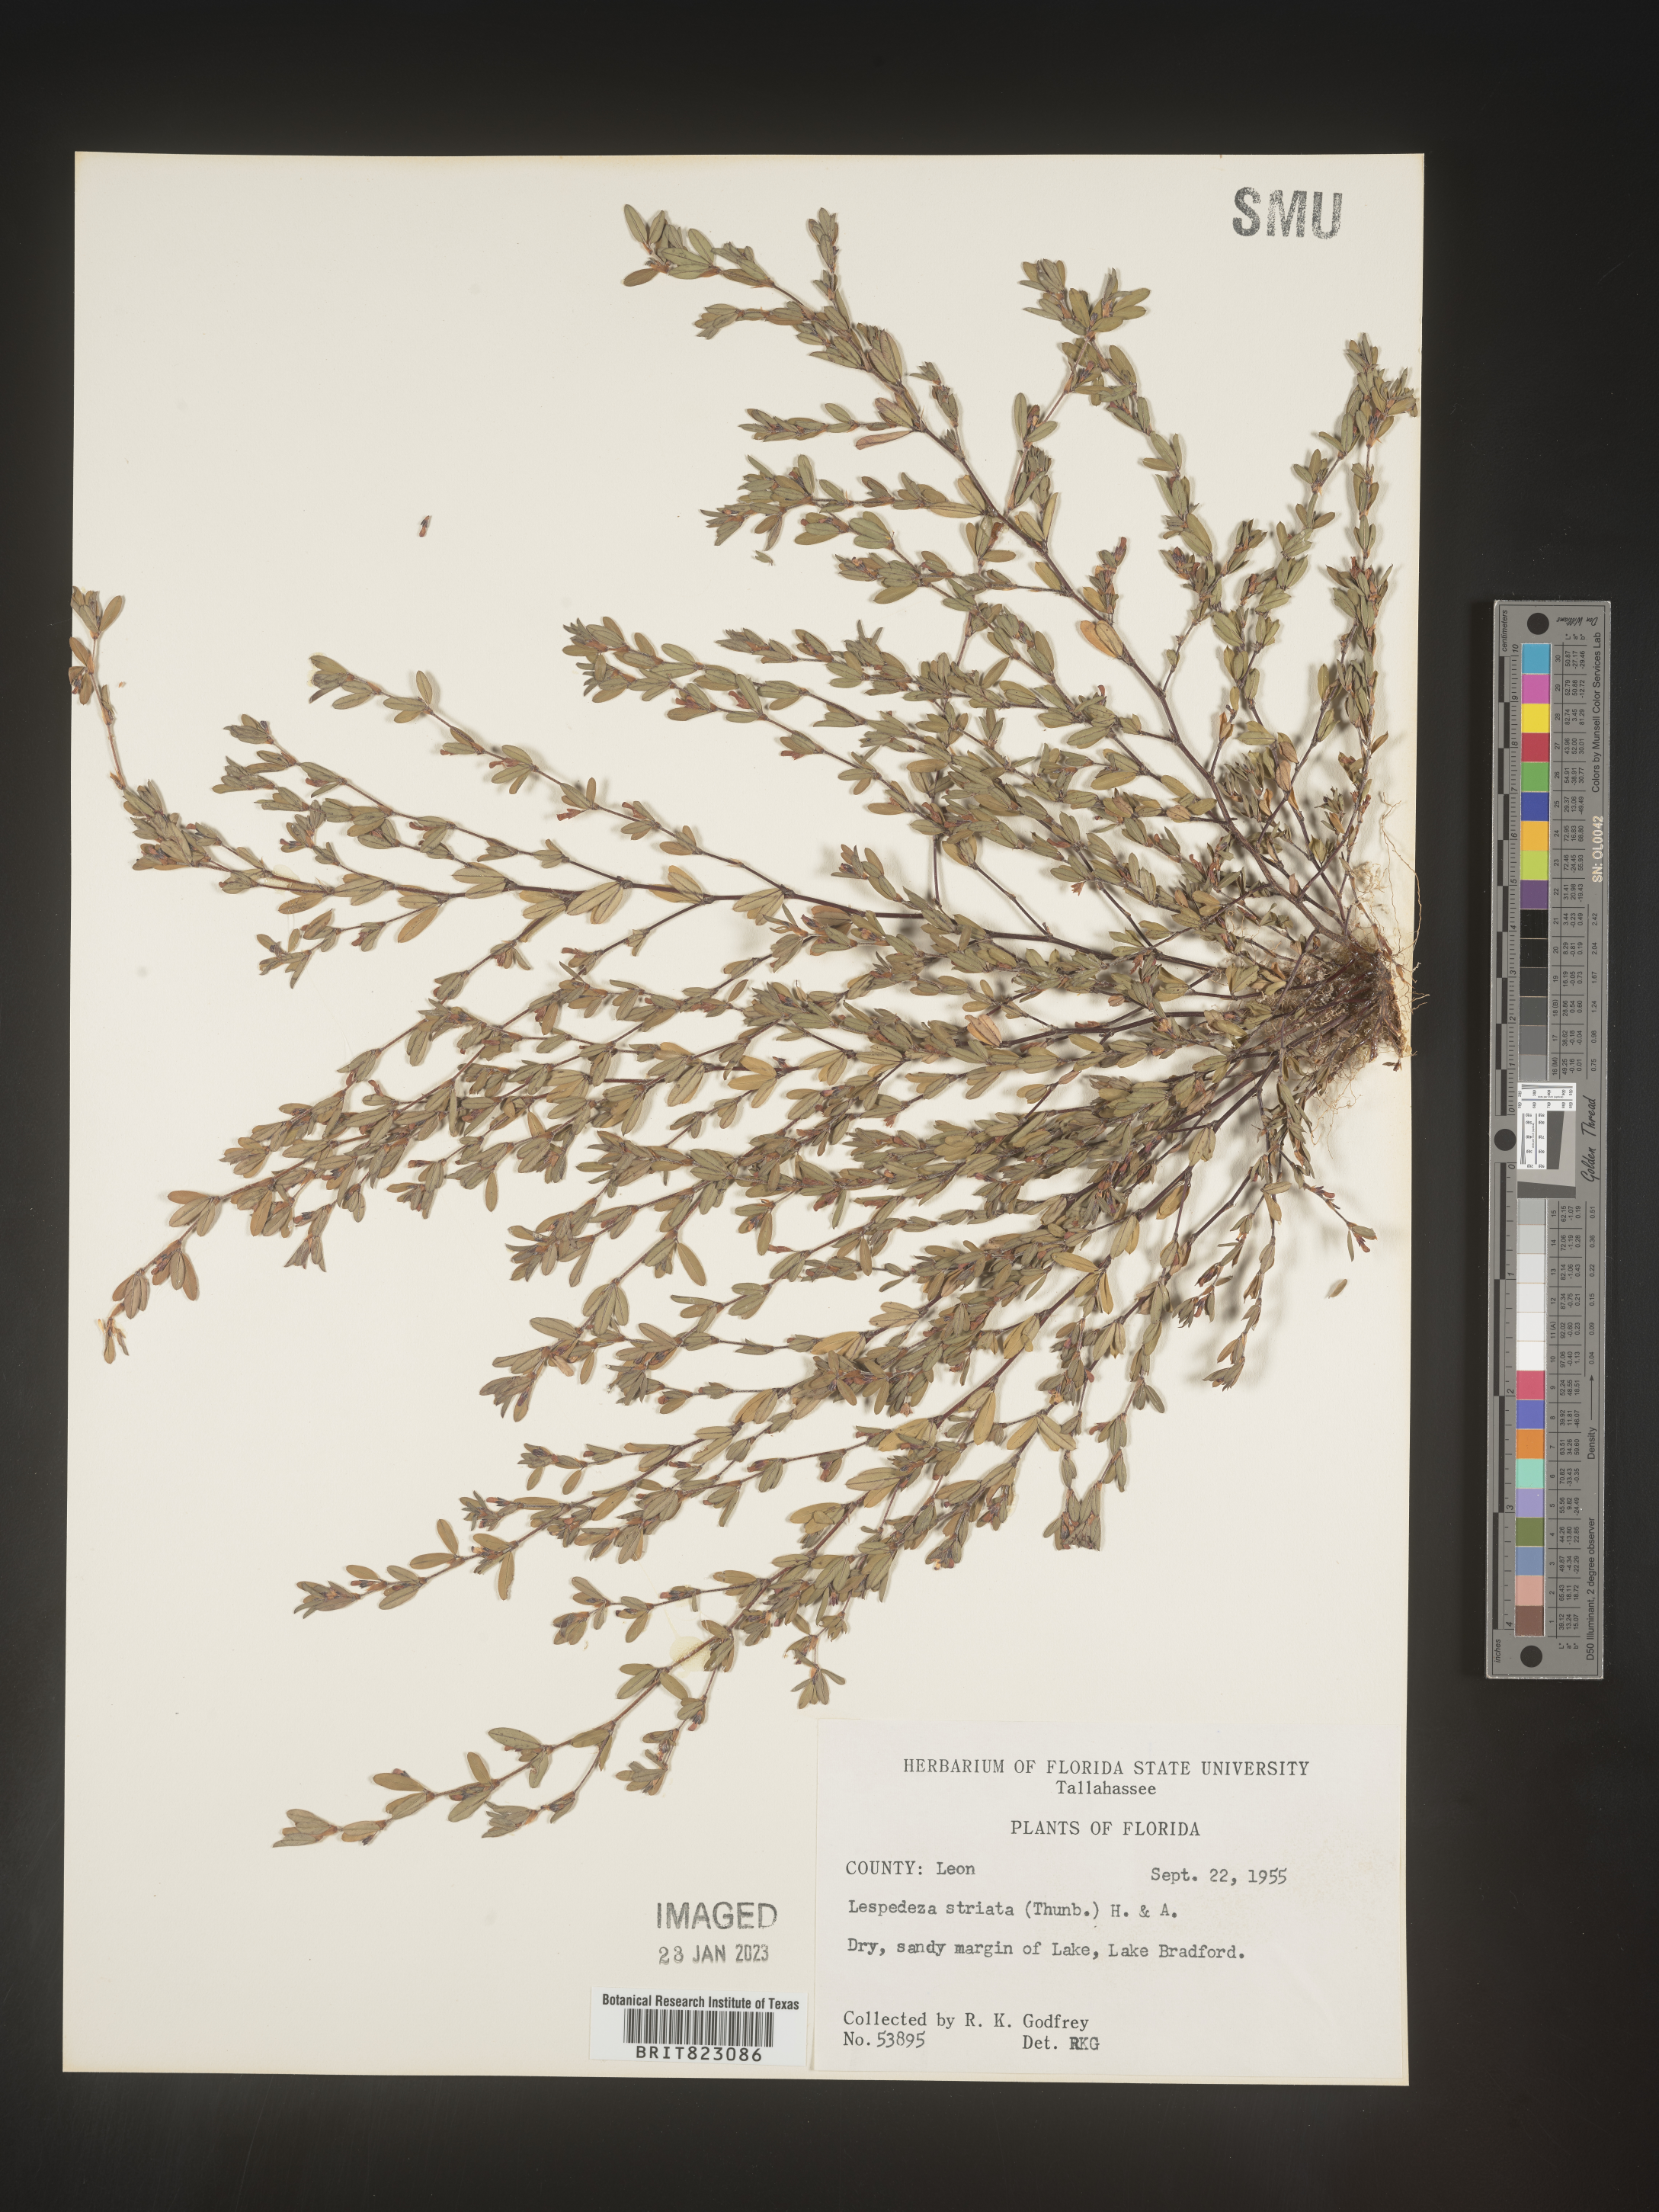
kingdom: Plantae
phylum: Tracheophyta
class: Magnoliopsida
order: Fabales
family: Fabaceae
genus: Kummerowia
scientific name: Kummerowia striata
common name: Japanese clover
